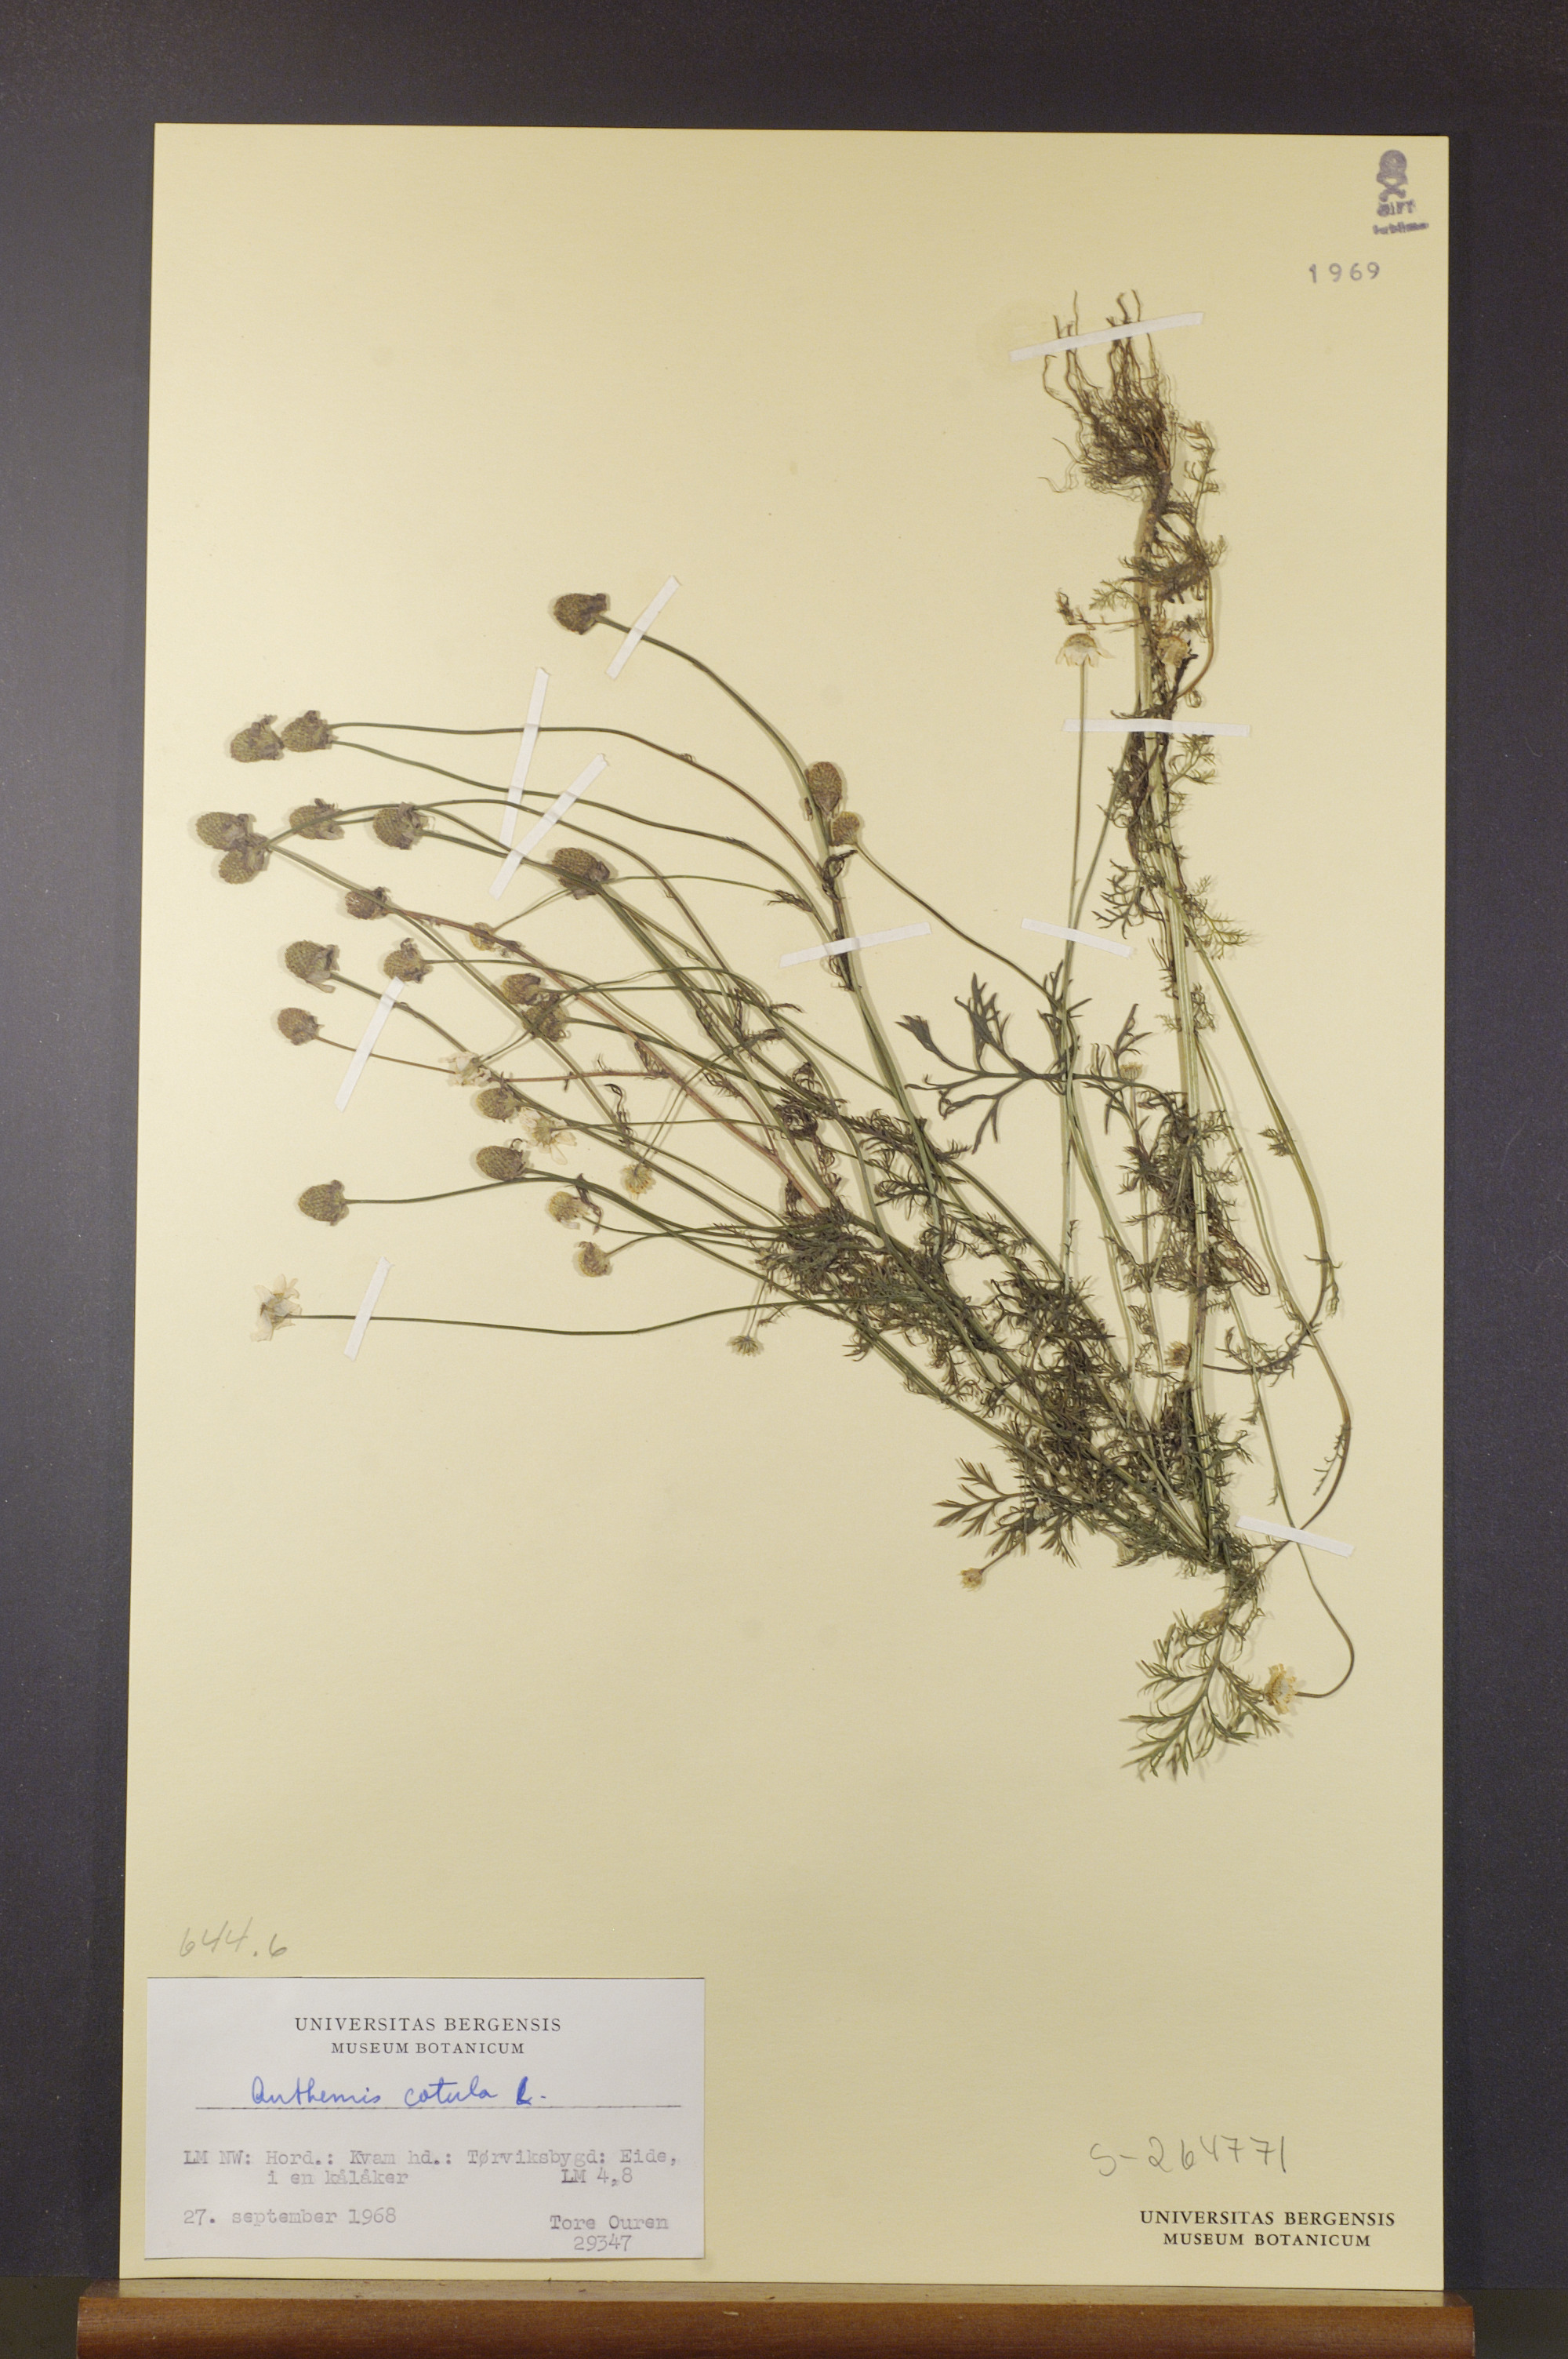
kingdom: Plantae
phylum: Tracheophyta
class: Magnoliopsida
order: Asterales
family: Asteraceae
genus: Anthemis
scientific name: Anthemis cotula
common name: Stinking chamomile
